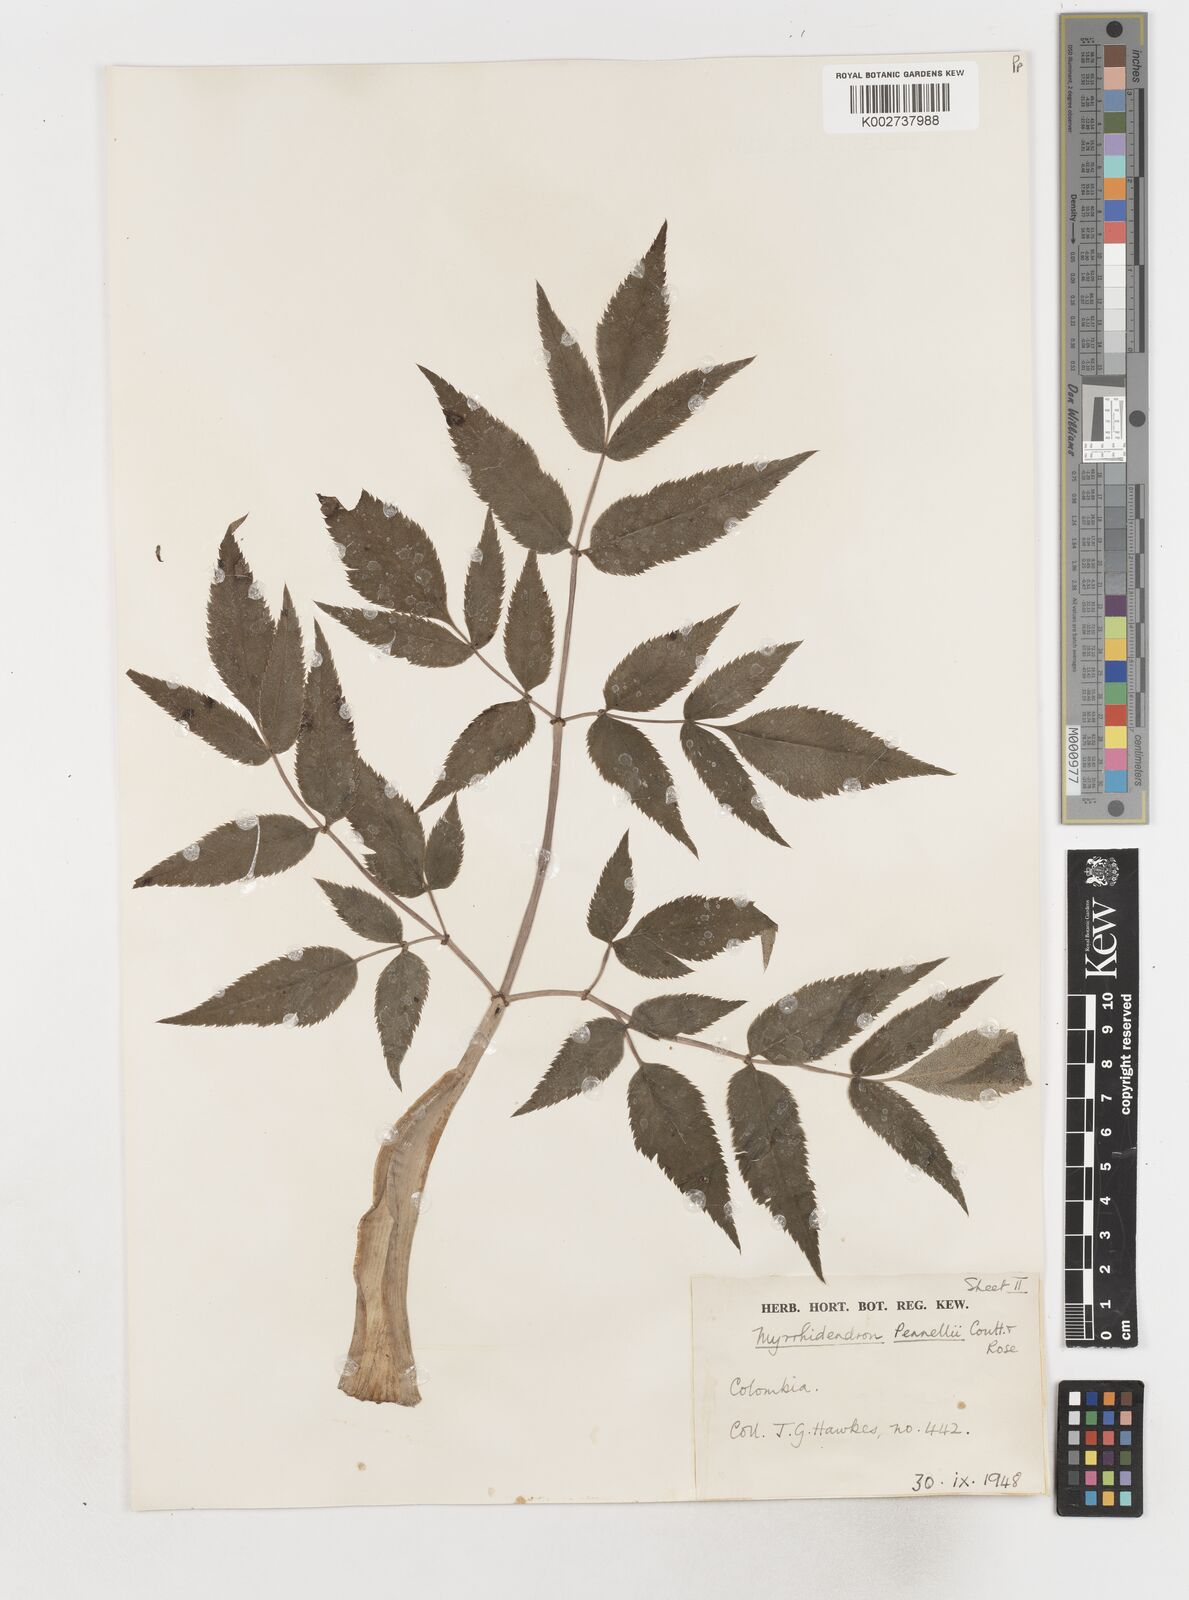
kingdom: Plantae
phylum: Tracheophyta
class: Magnoliopsida
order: Apiales
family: Apiaceae
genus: Myrrhidendron
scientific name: Myrrhidendron pennellii
